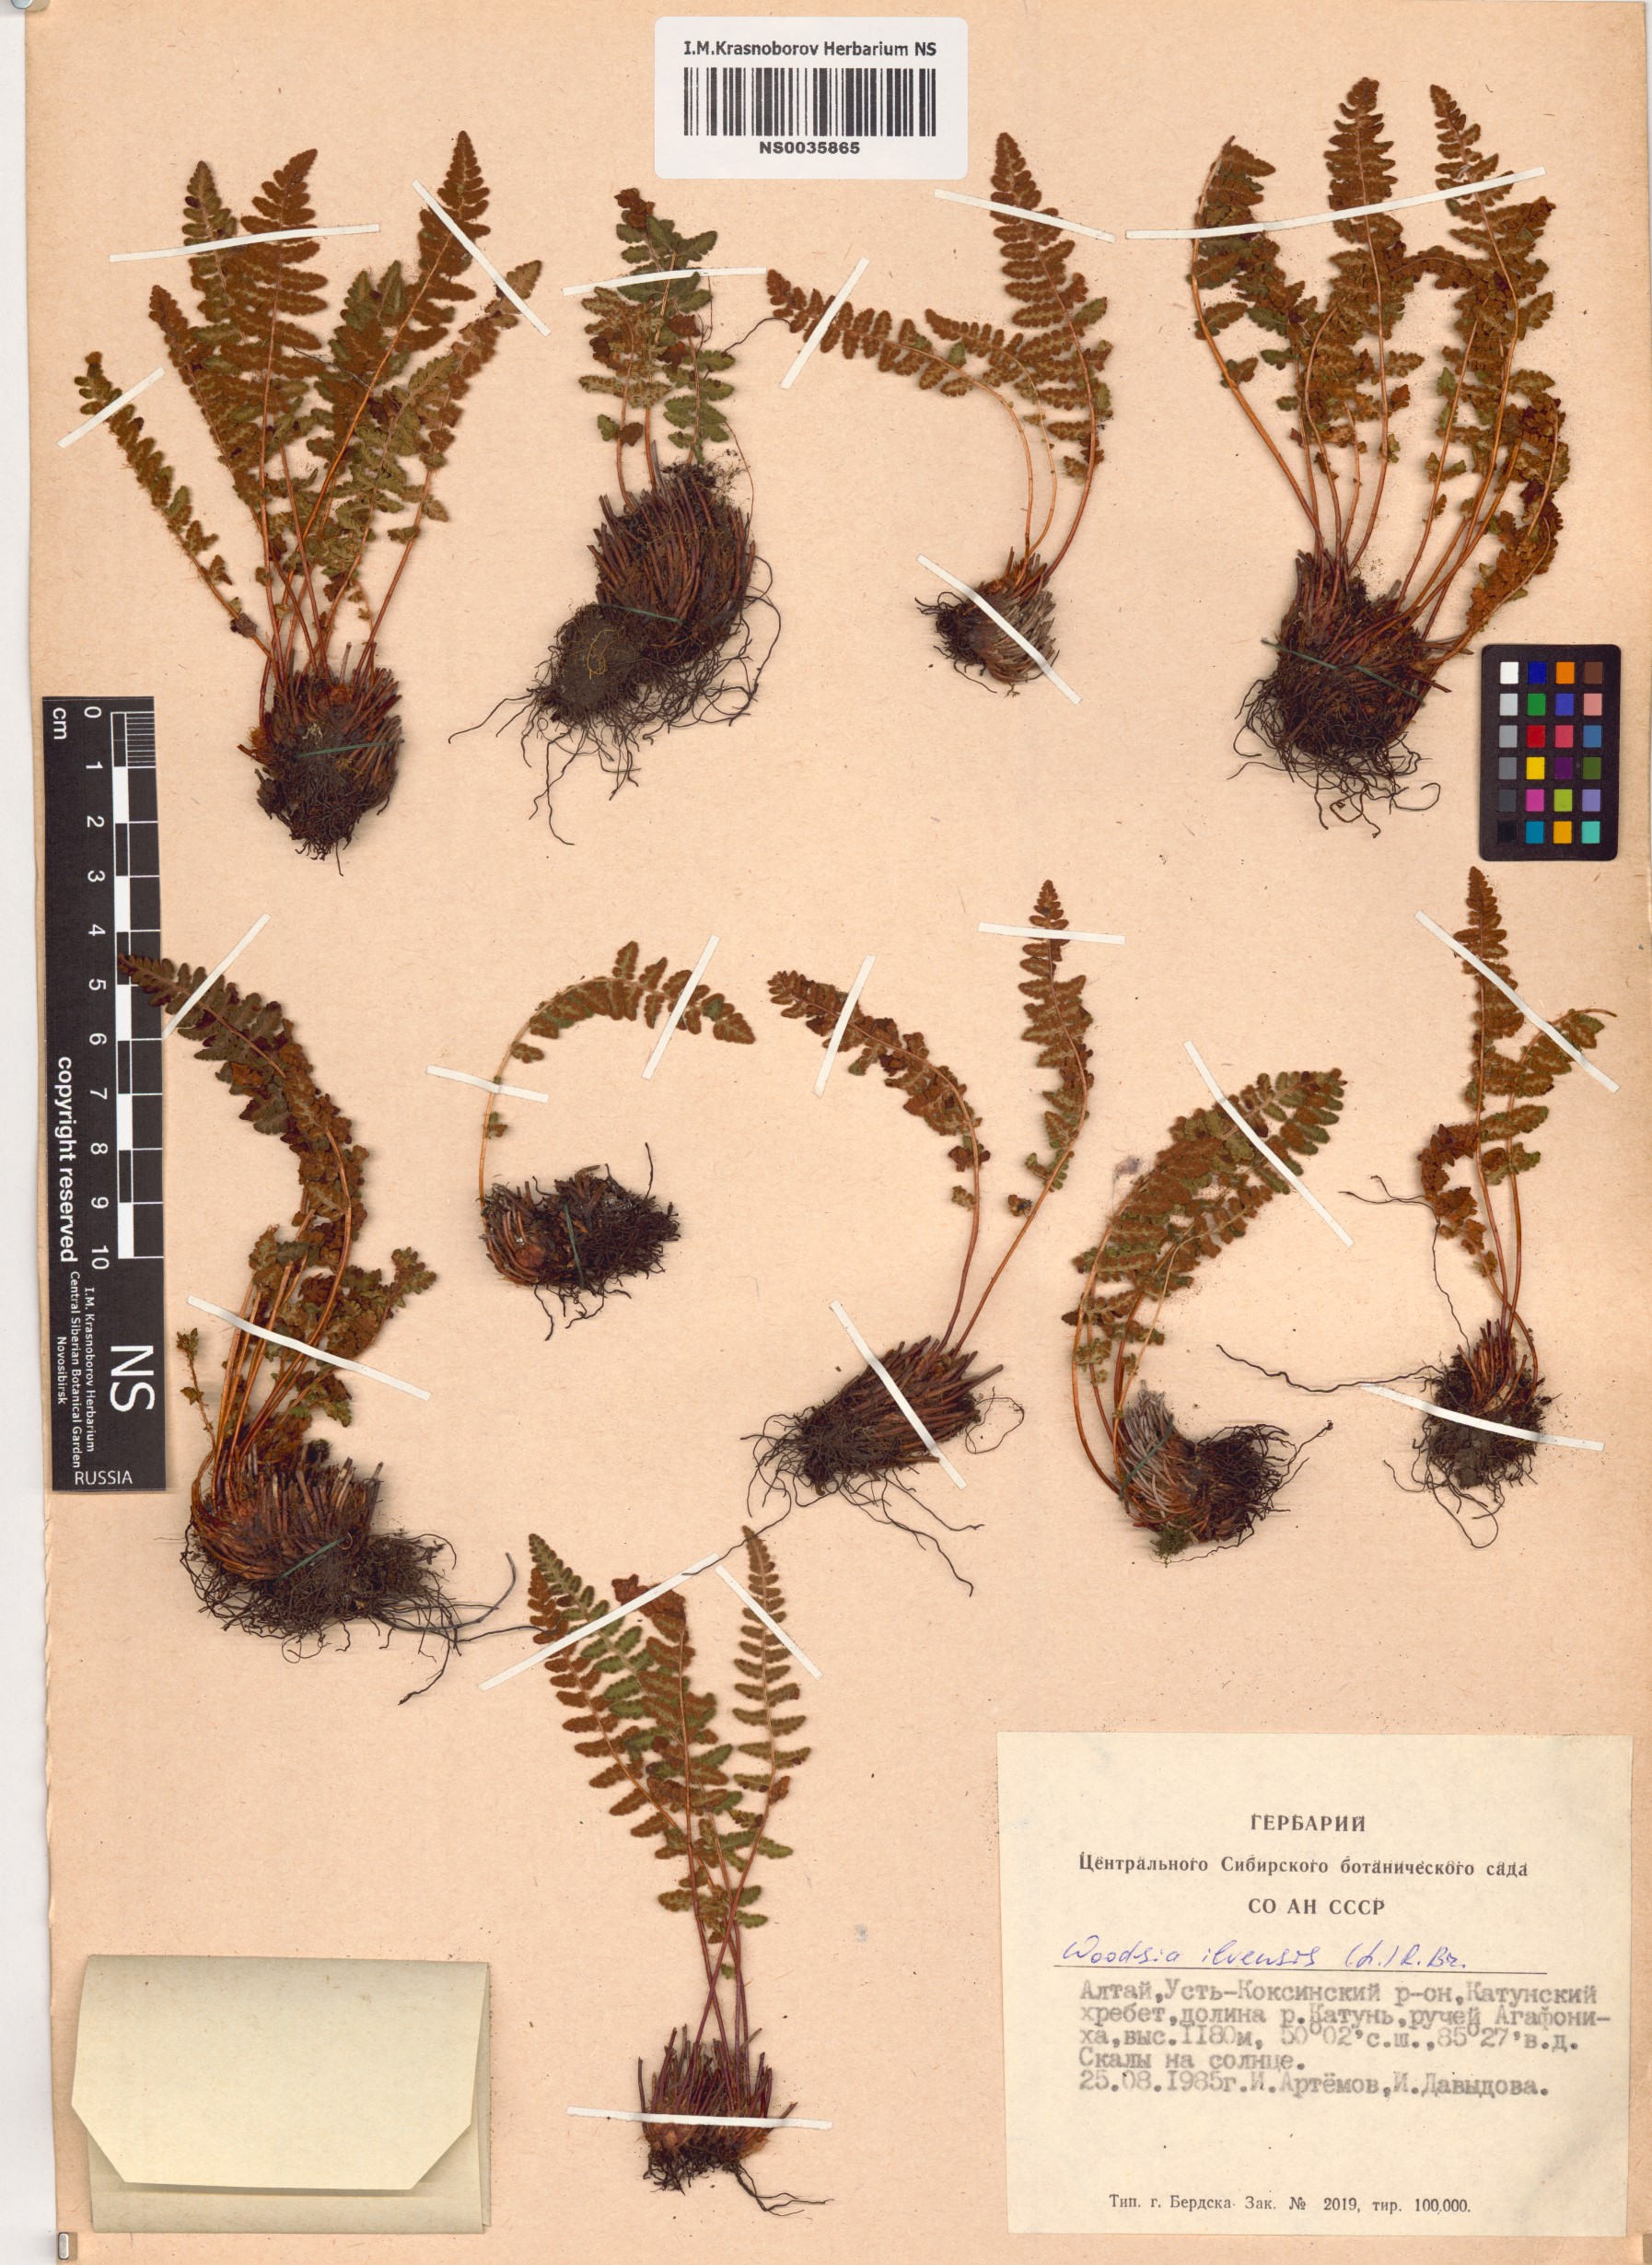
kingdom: Plantae
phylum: Tracheophyta
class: Polypodiopsida
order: Polypodiales
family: Woodsiaceae
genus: Woodsia
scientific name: Woodsia ilvensis
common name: Fragrant woodsia
